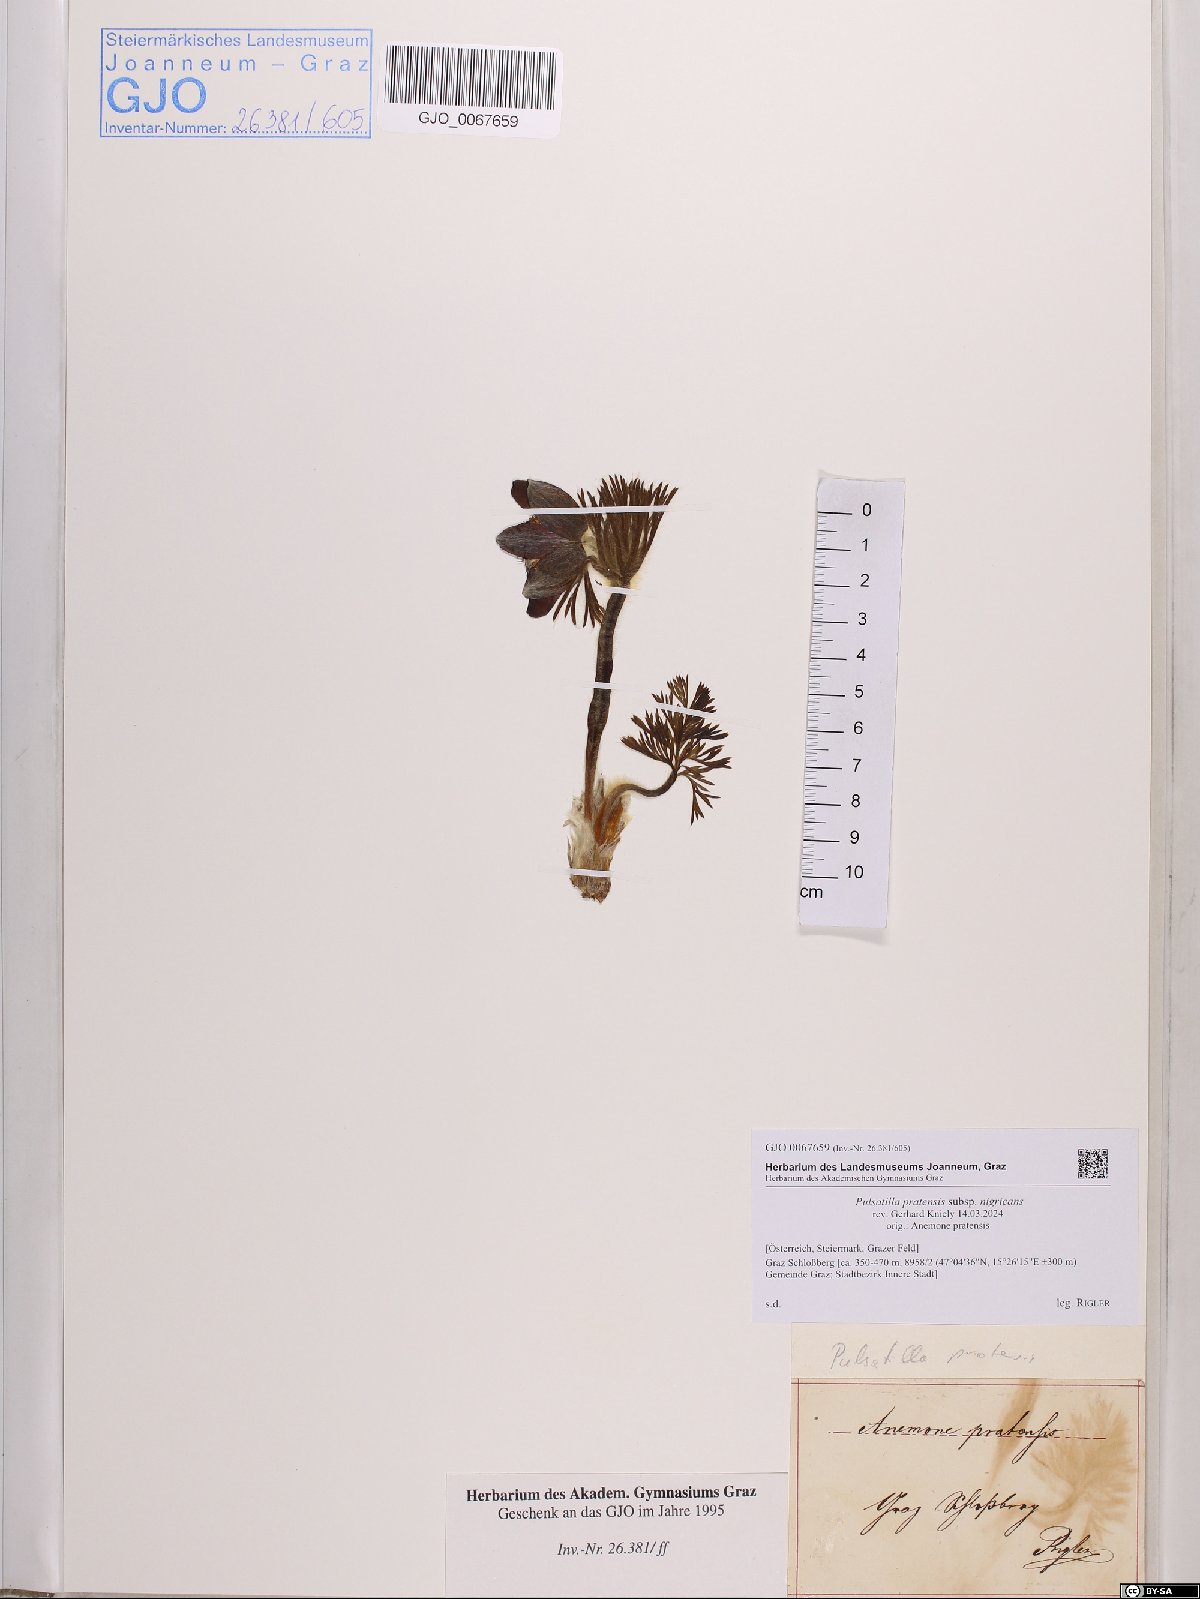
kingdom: Plantae
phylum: Tracheophyta
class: Magnoliopsida
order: Ranunculales
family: Ranunculaceae
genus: Pulsatilla
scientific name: Pulsatilla pratensis
